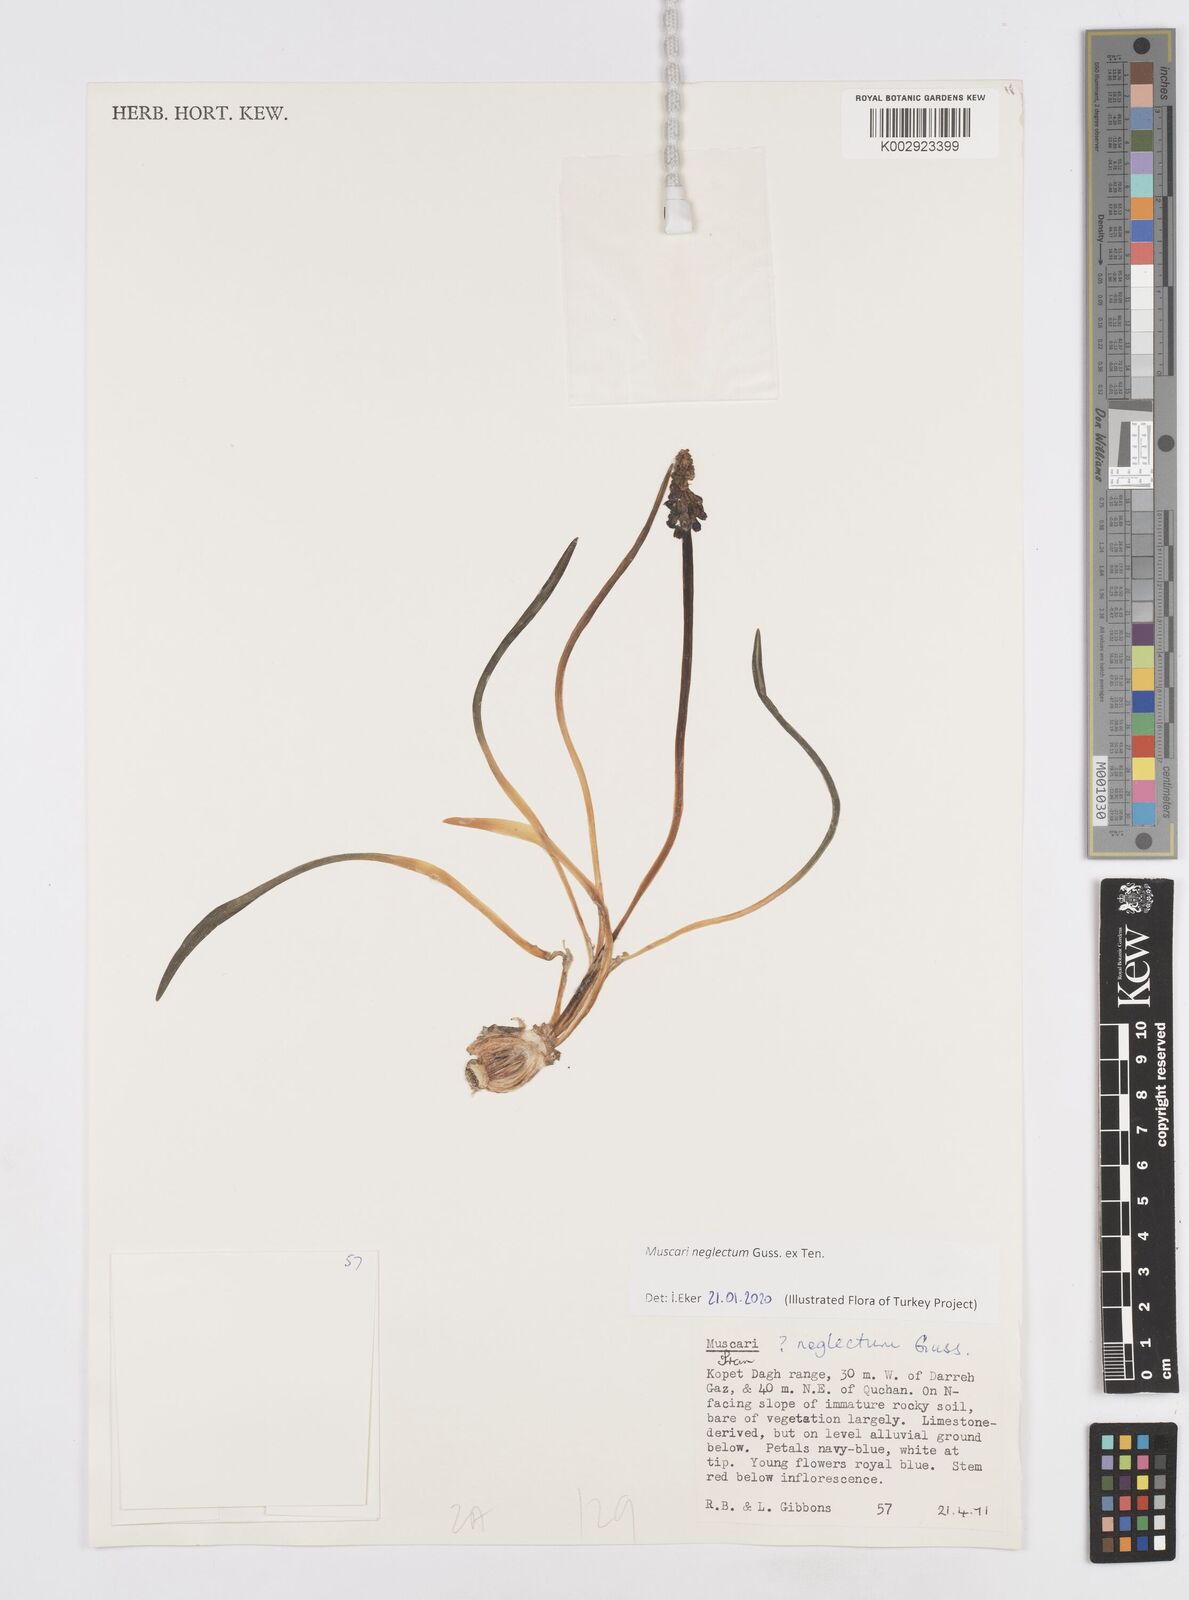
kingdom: Plantae
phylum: Tracheophyta
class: Liliopsida
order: Asparagales
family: Asparagaceae
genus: Muscari
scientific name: Muscari neglectum
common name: Grape-hyacinth
